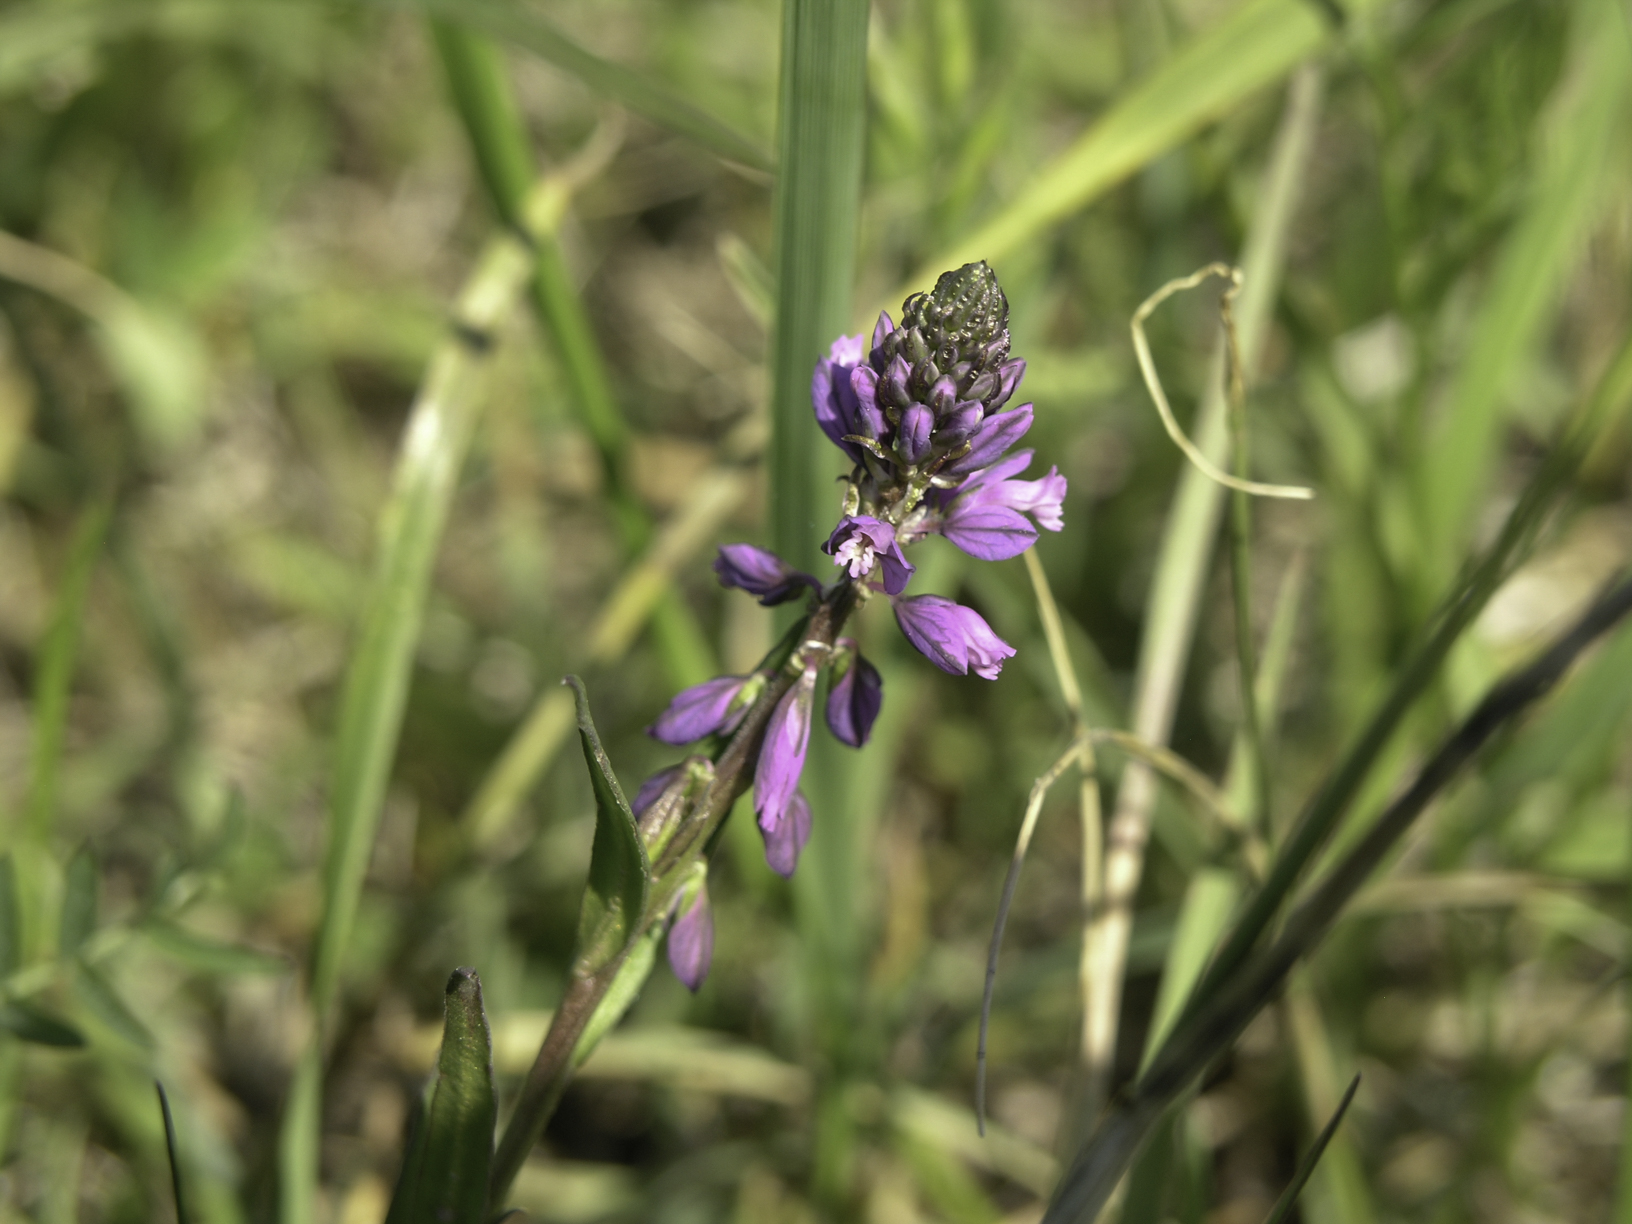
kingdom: Plantae
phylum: Tracheophyta
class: Magnoliopsida
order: Fabales
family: Polygalaceae
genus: Polygala
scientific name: Polygala comosa
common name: Tufted milkwort
